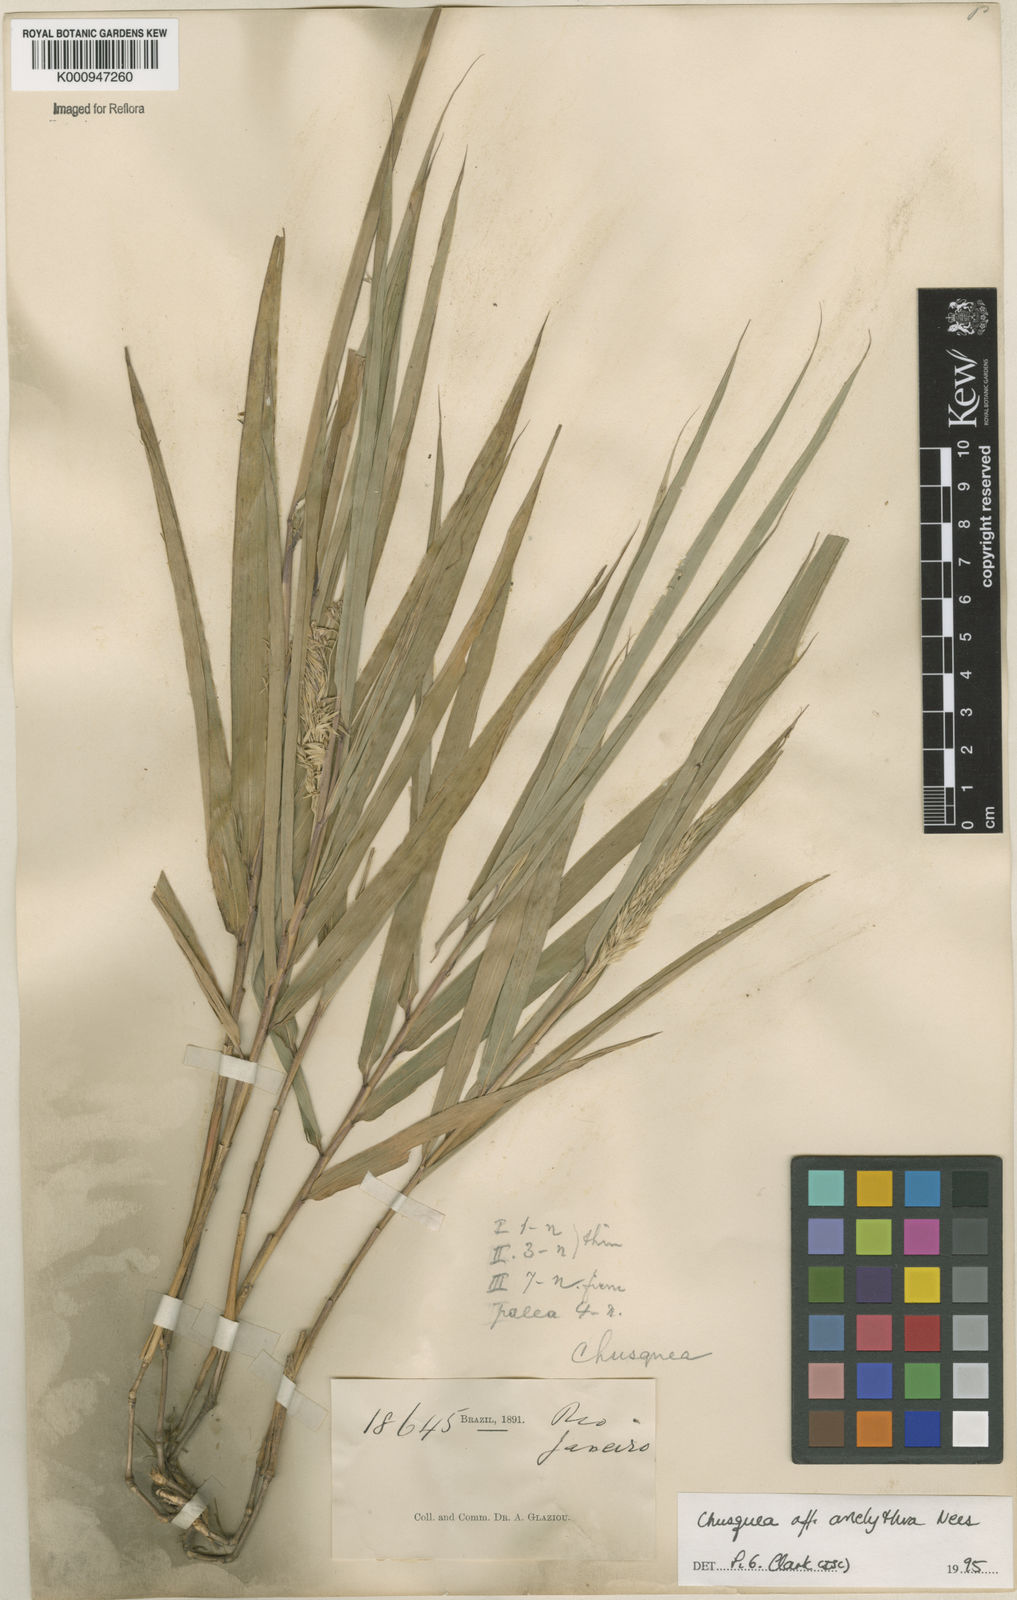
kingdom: Plantae
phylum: Tracheophyta
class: Liliopsida
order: Poales
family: Poaceae
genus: Chusquea
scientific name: Chusquea anelythra
